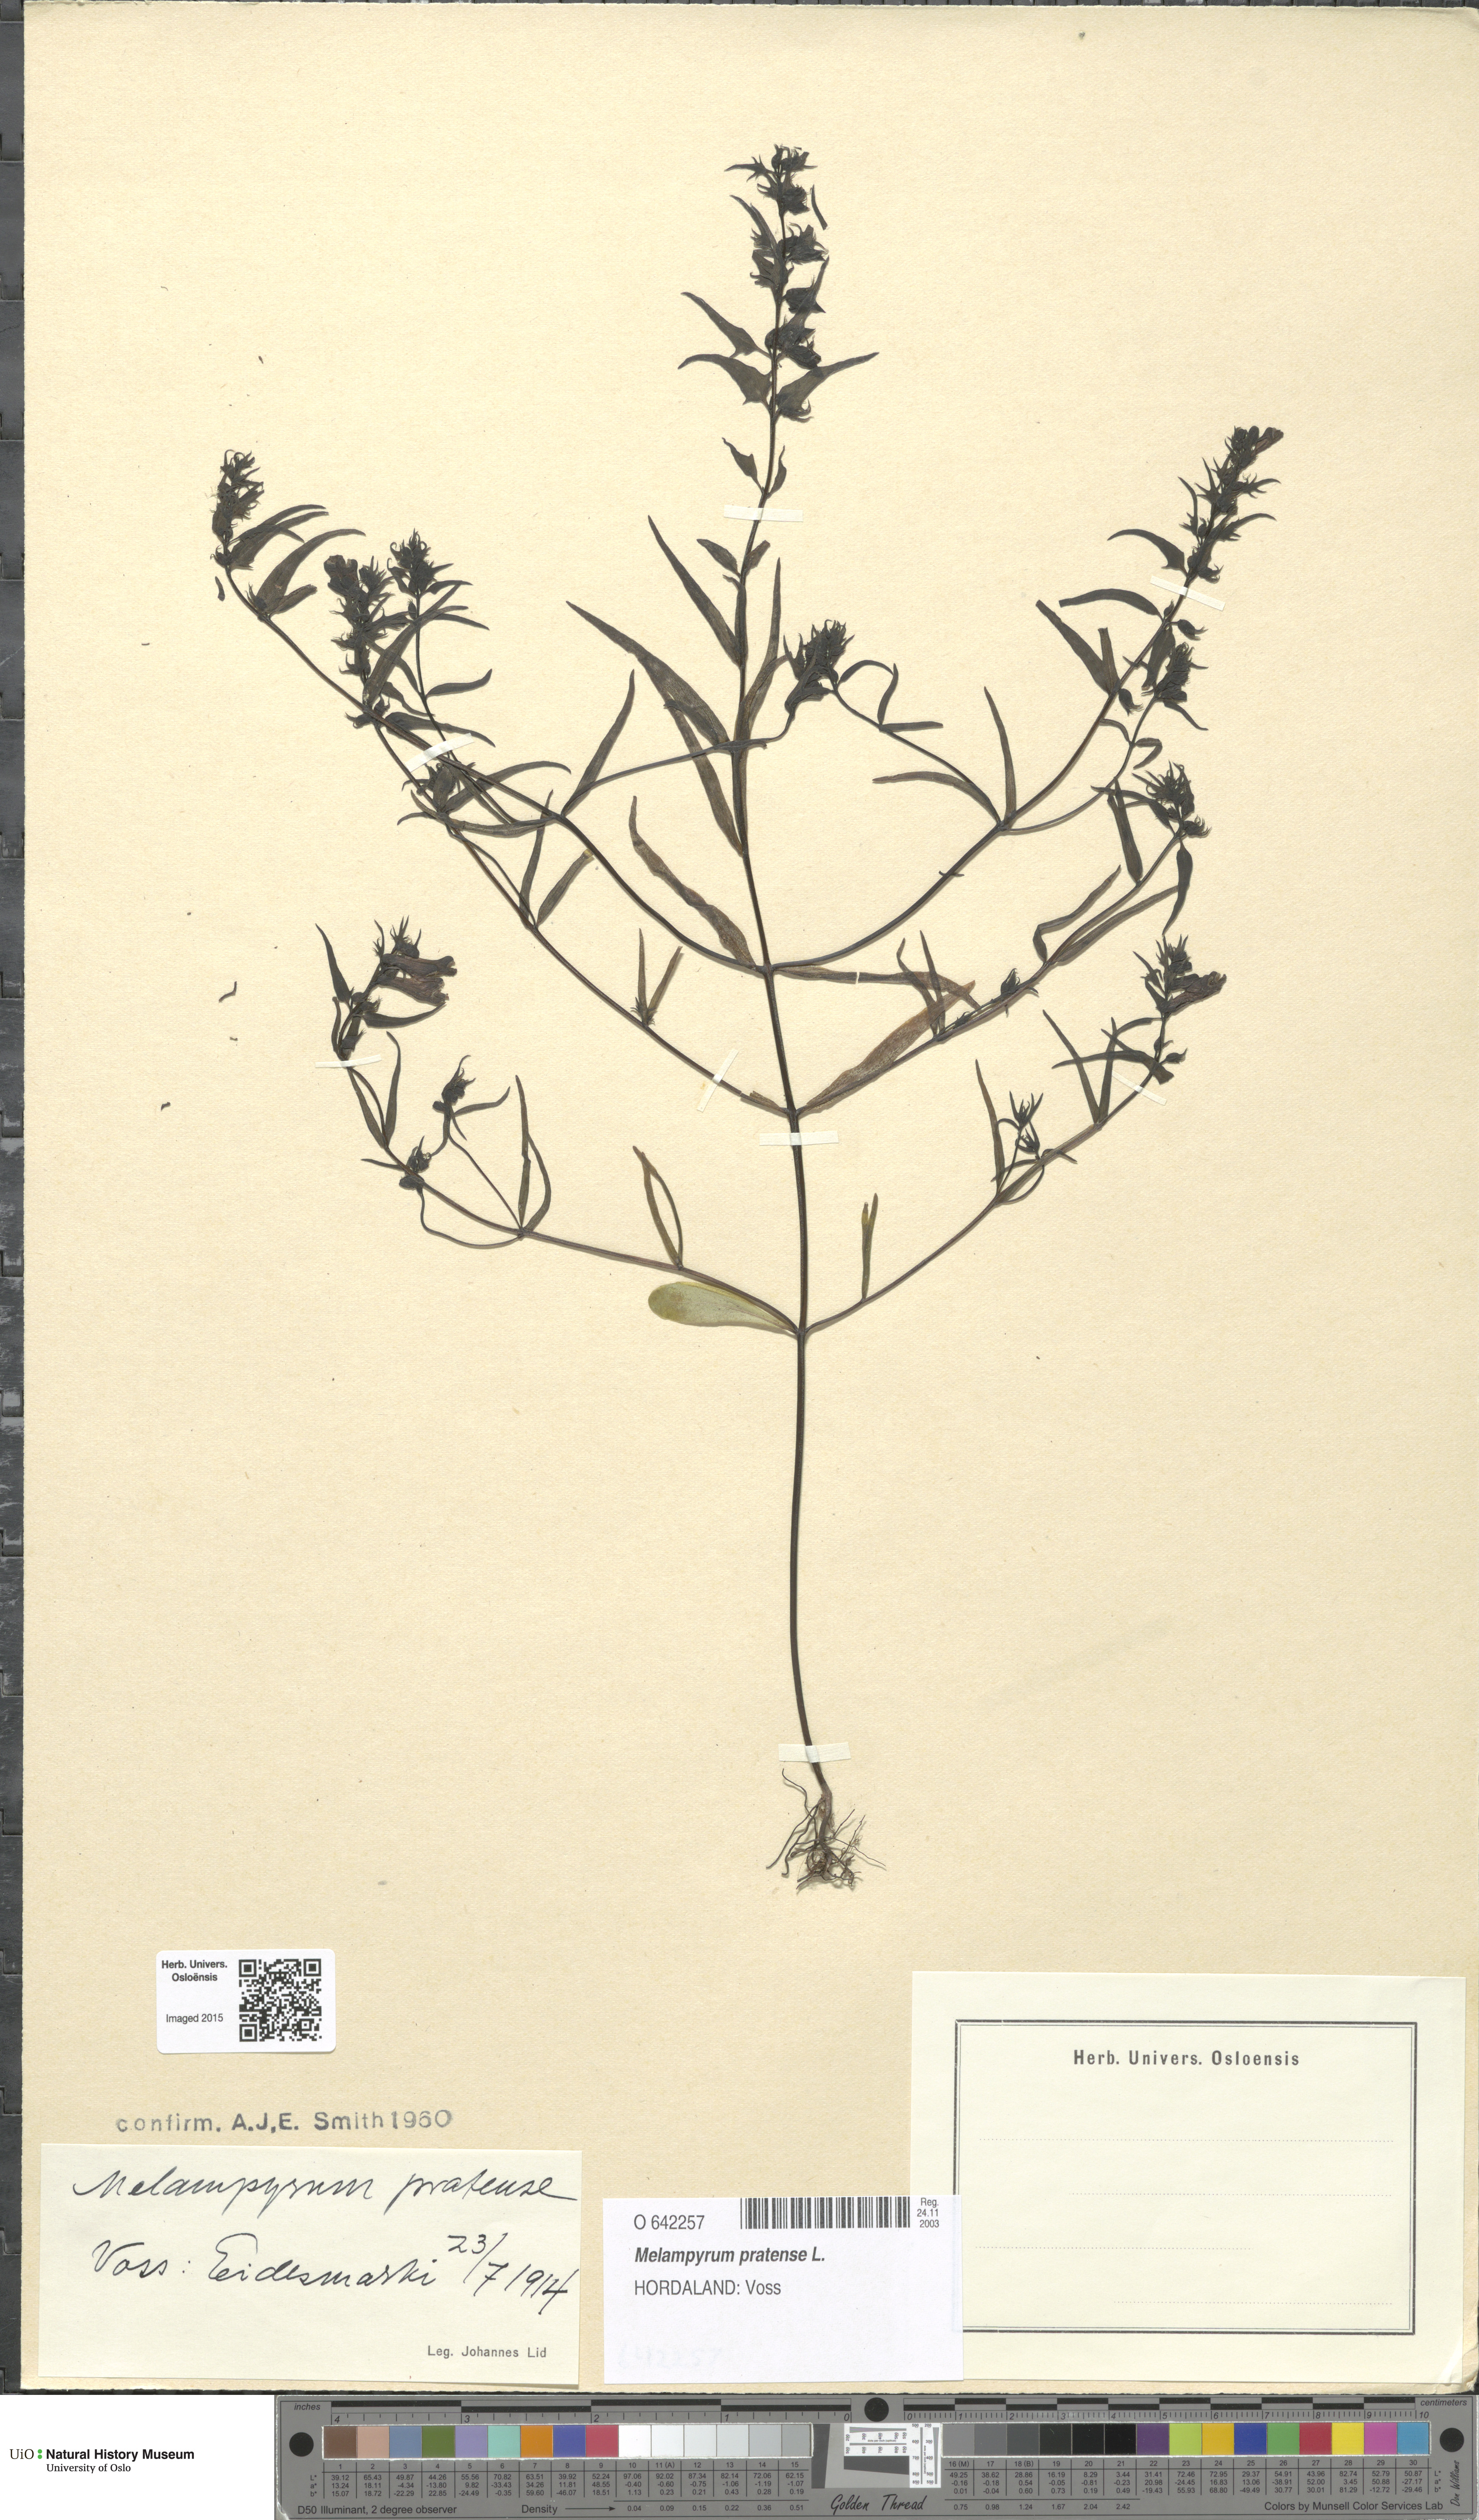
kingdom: Plantae
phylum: Tracheophyta
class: Magnoliopsida
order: Lamiales
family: Orobanchaceae
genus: Melampyrum
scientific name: Melampyrum pratense
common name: Common cow-wheat
